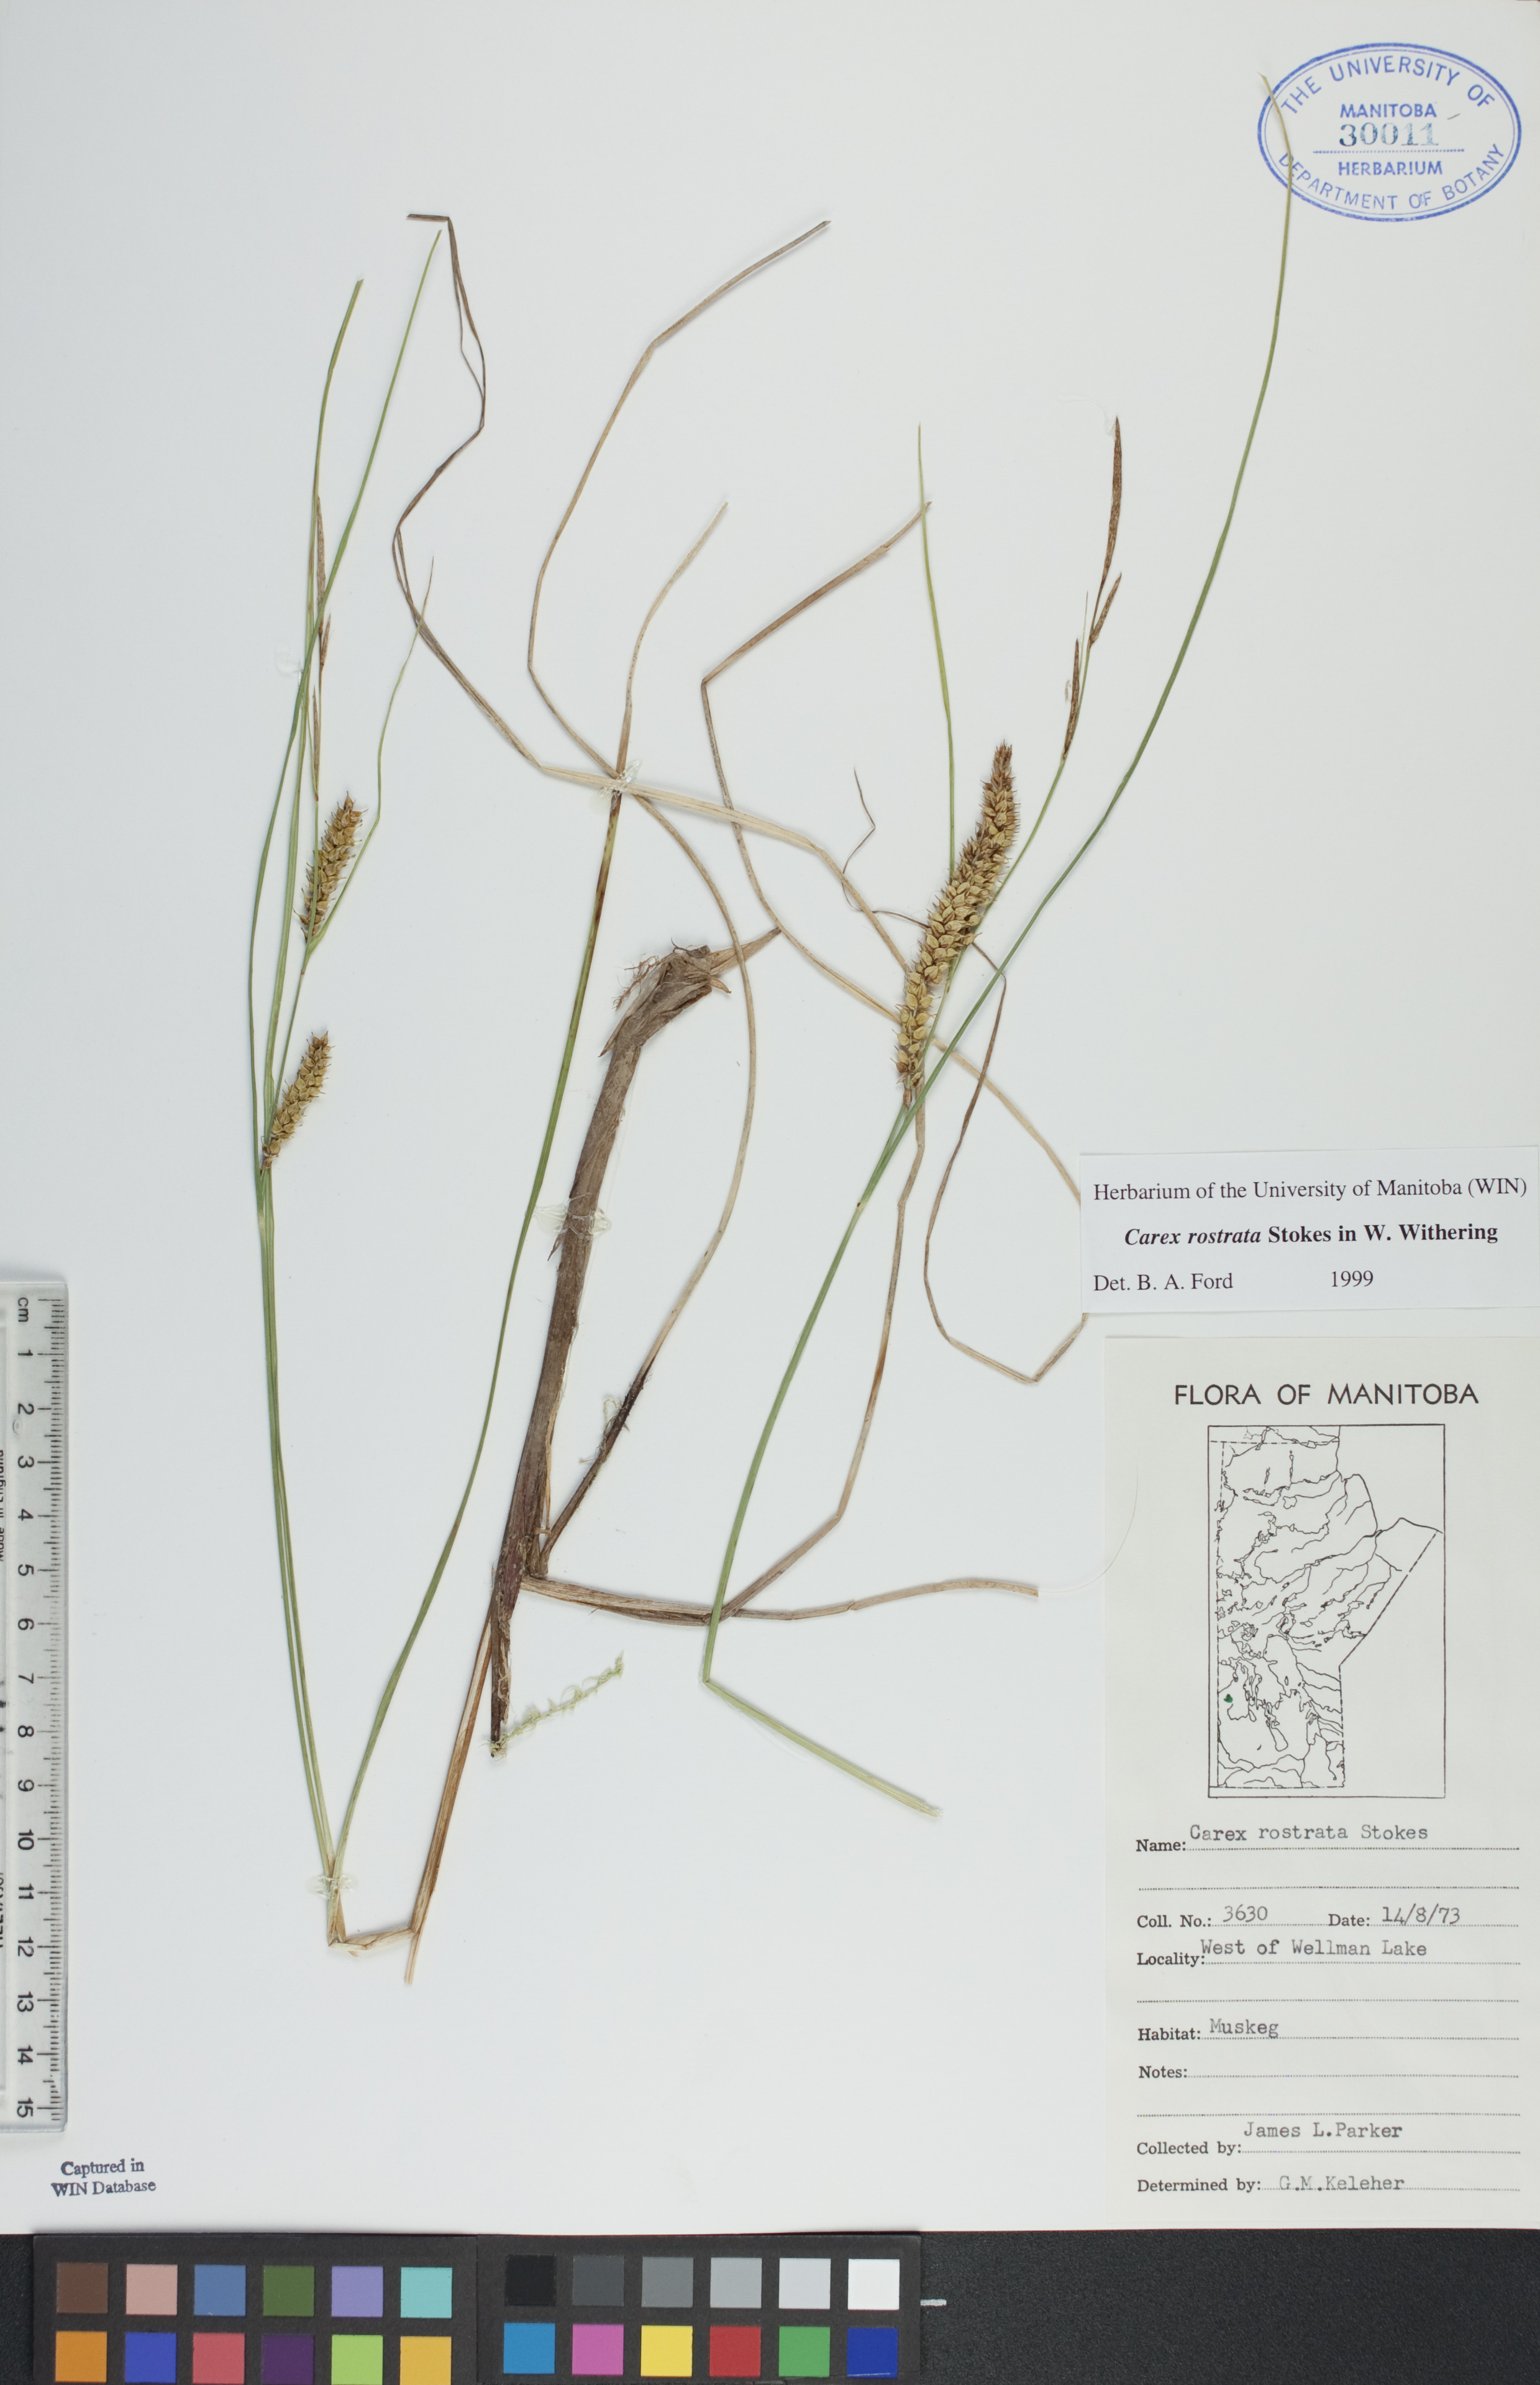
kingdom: Plantae
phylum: Tracheophyta
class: Liliopsida
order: Poales
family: Cyperaceae
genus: Carex
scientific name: Carex rostrata
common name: Bottle sedge
